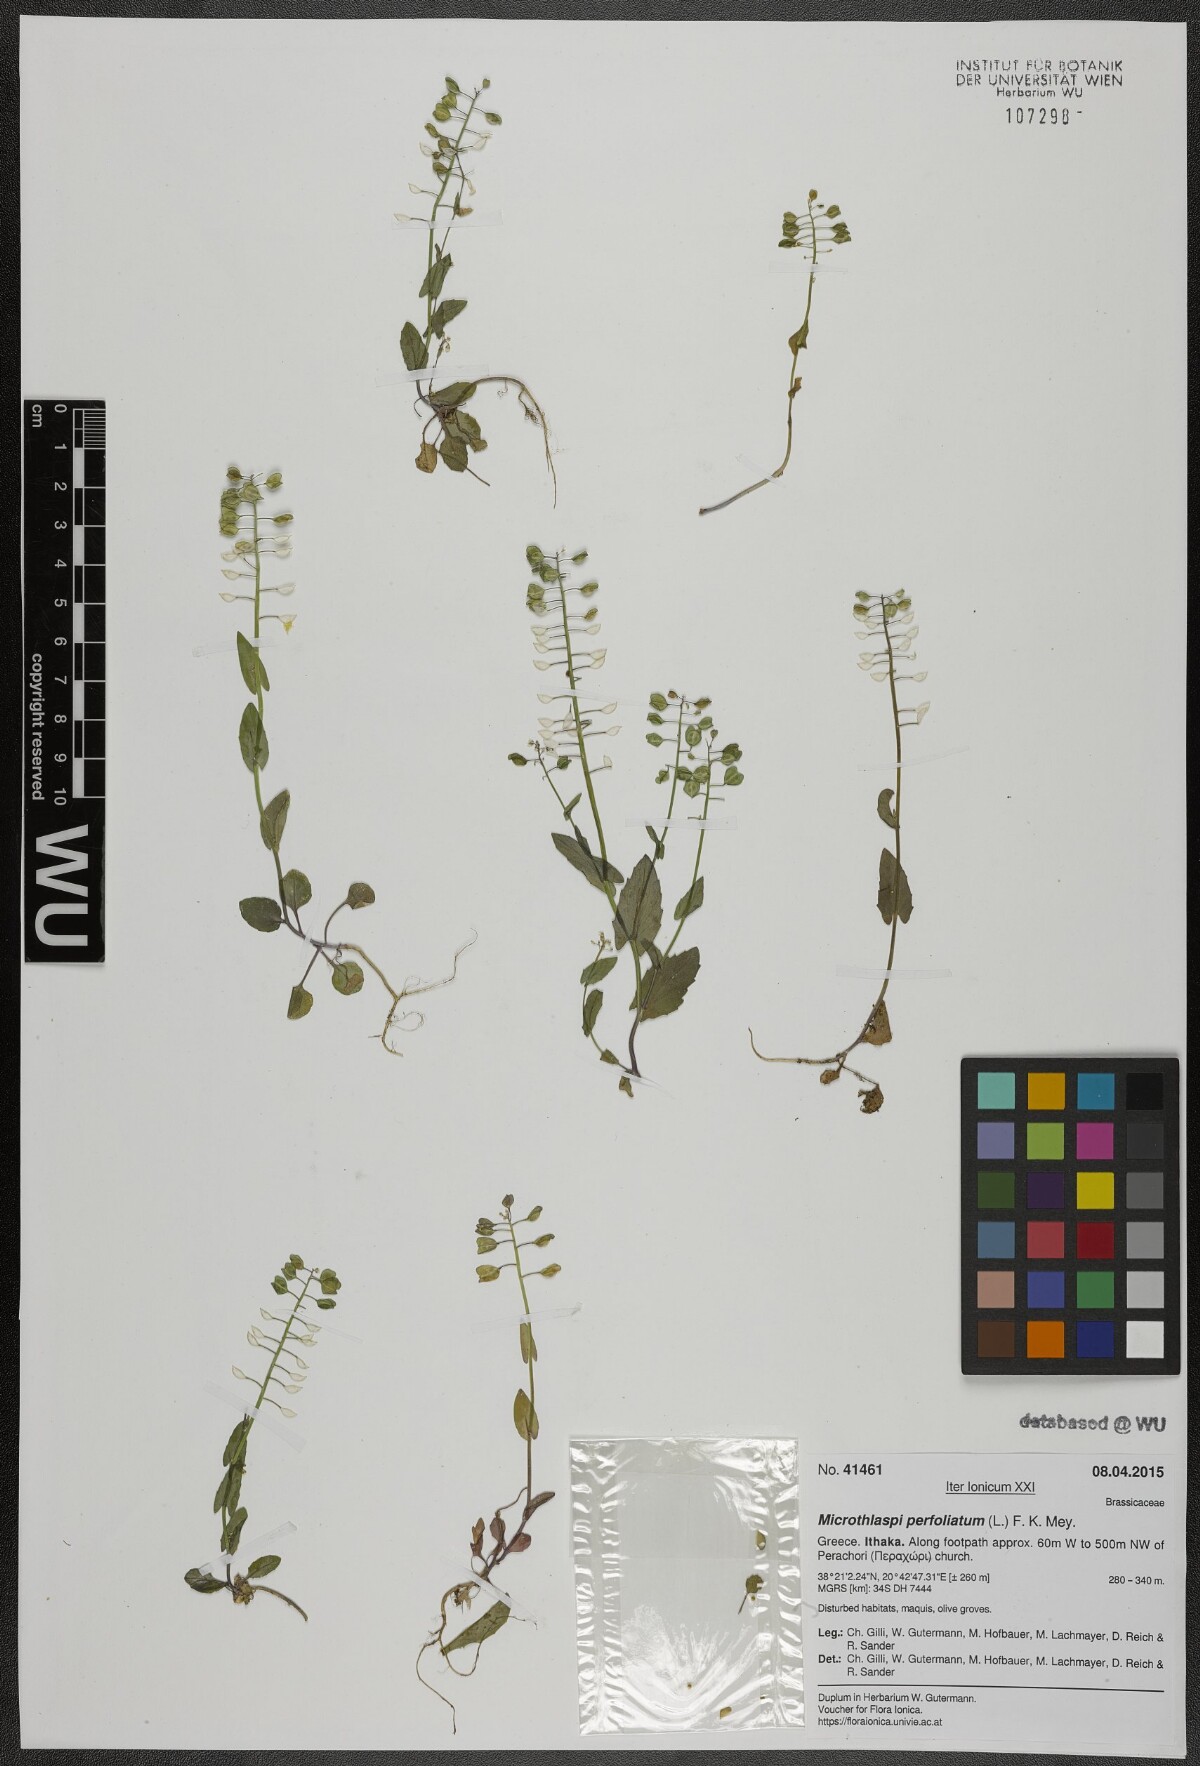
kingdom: Plantae
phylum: Tracheophyta
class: Magnoliopsida
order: Brassicales
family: Brassicaceae
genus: Noccaea
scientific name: Noccaea perfoliata
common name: Perfoliate pennycress
